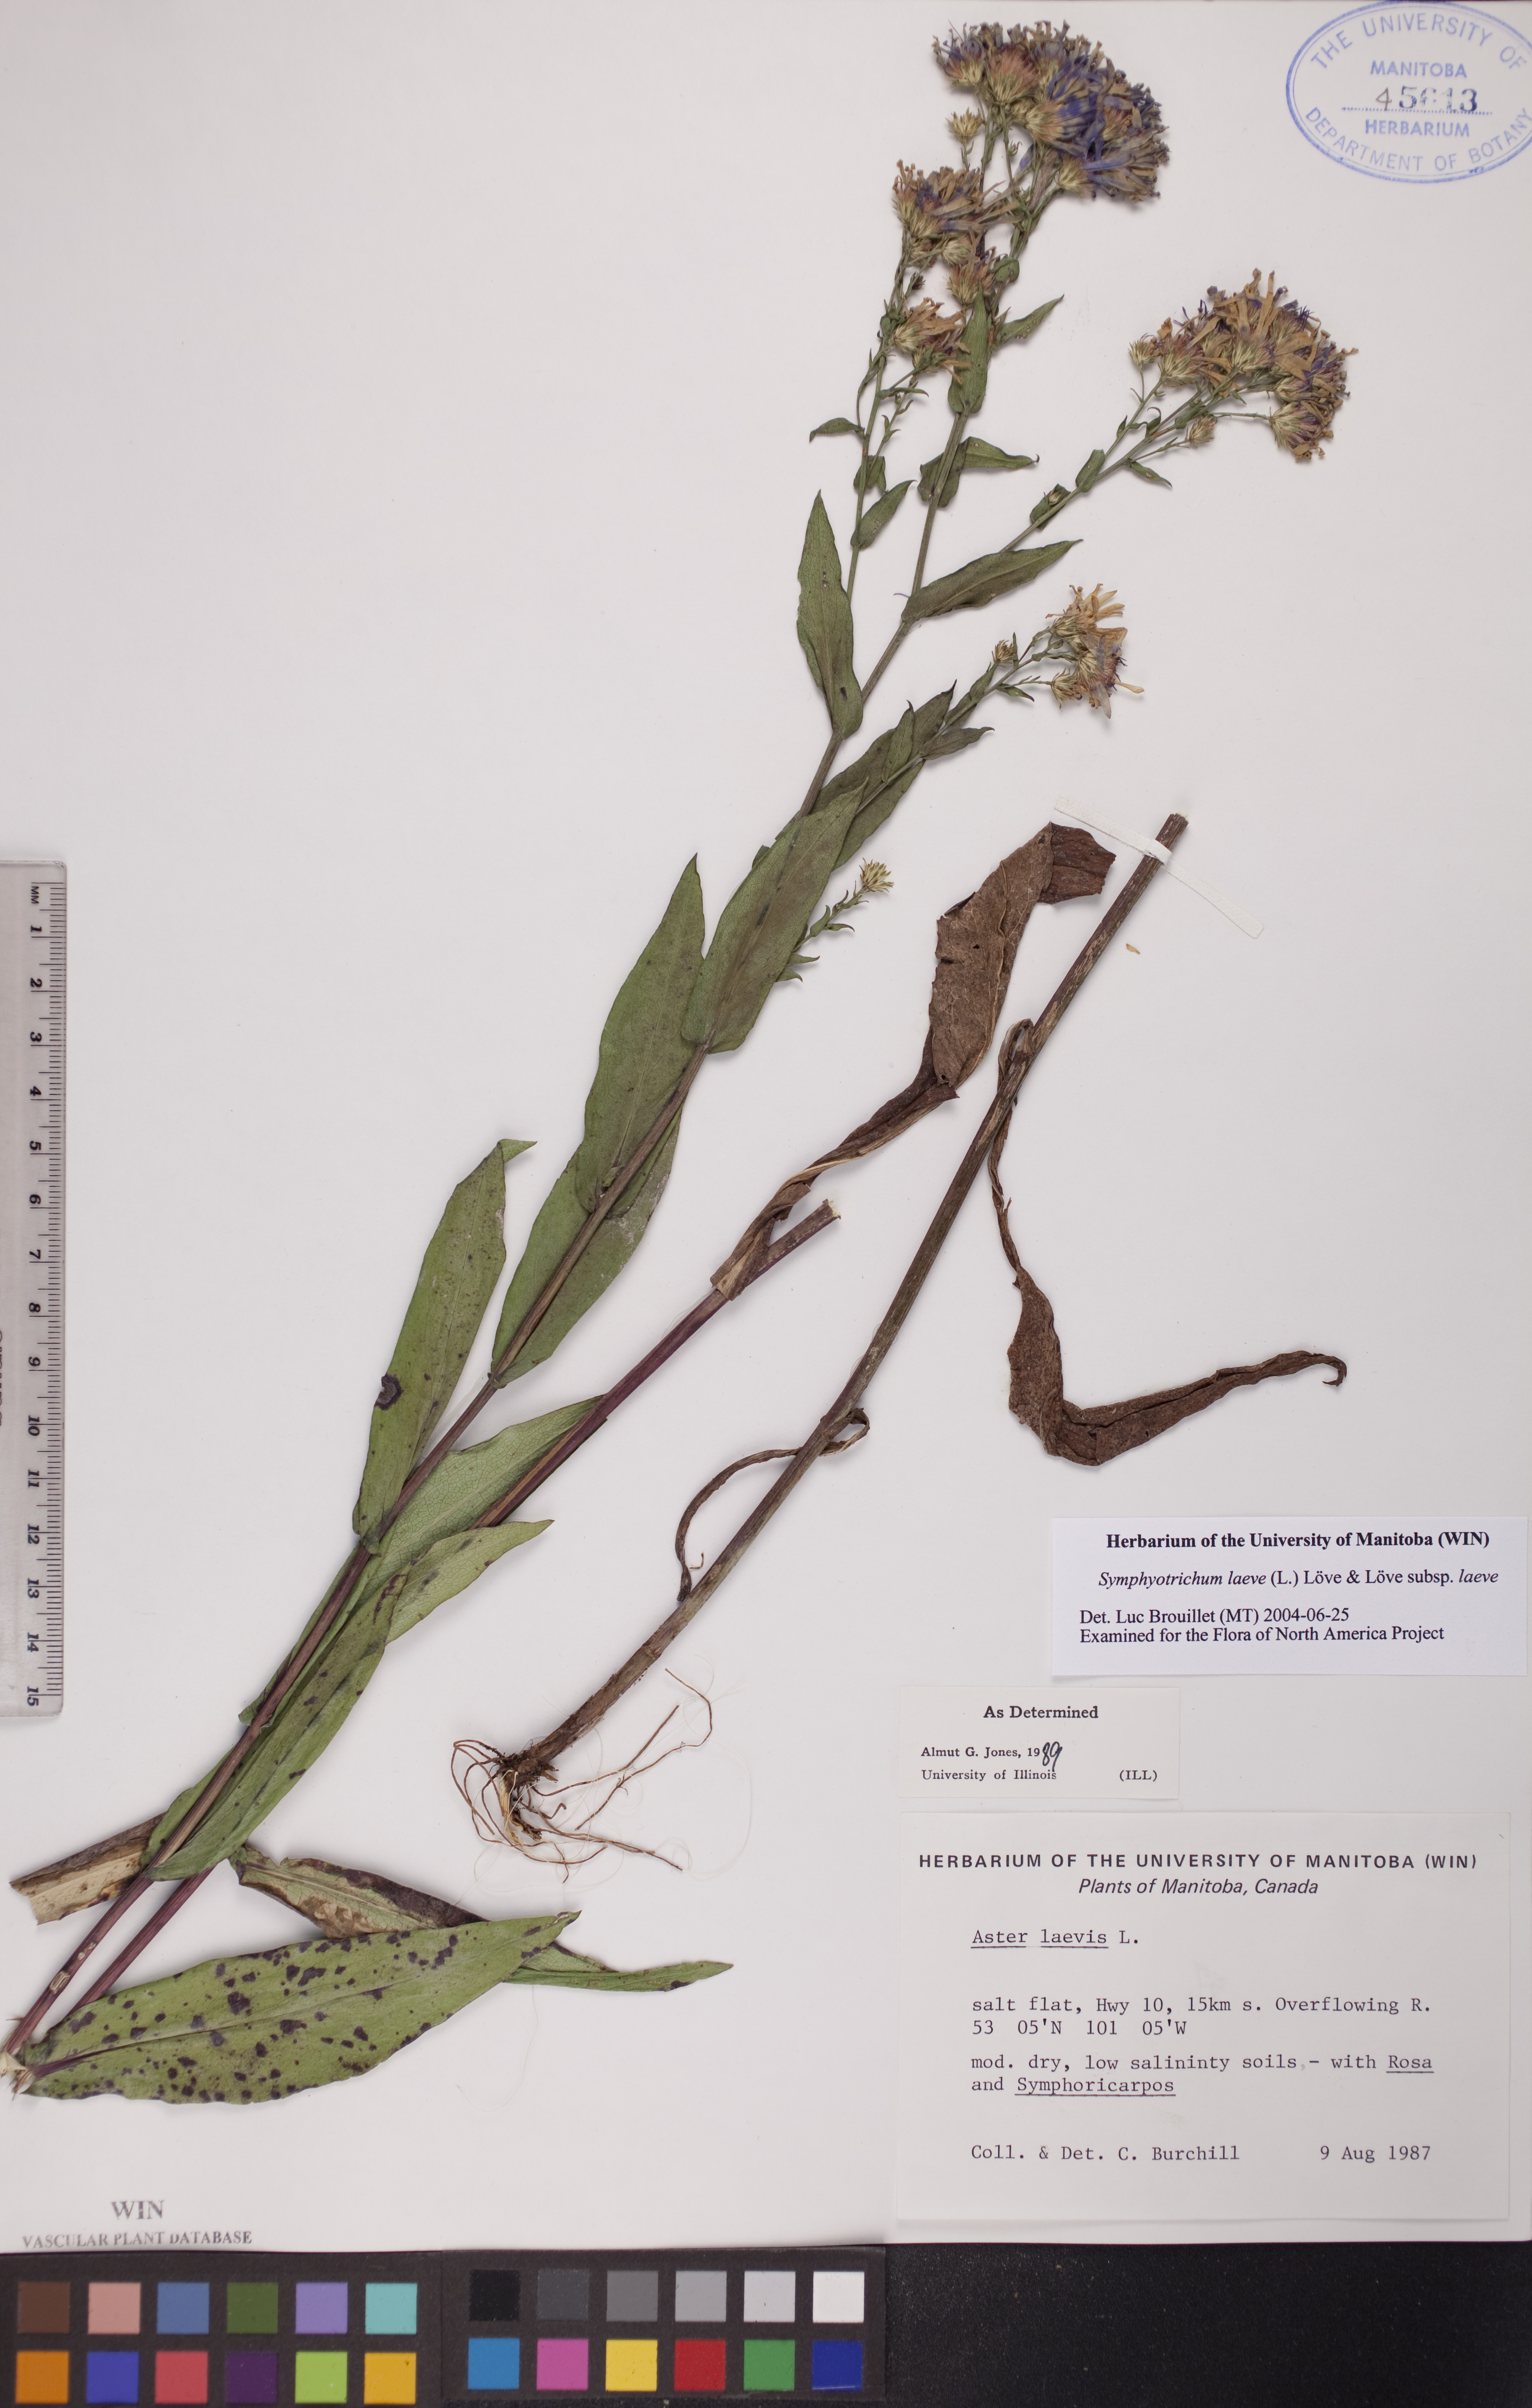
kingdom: Plantae
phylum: Tracheophyta
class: Magnoliopsida
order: Asterales
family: Asteraceae
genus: Symphyotrichum
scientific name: Symphyotrichum laeve
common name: Glaucous aster
